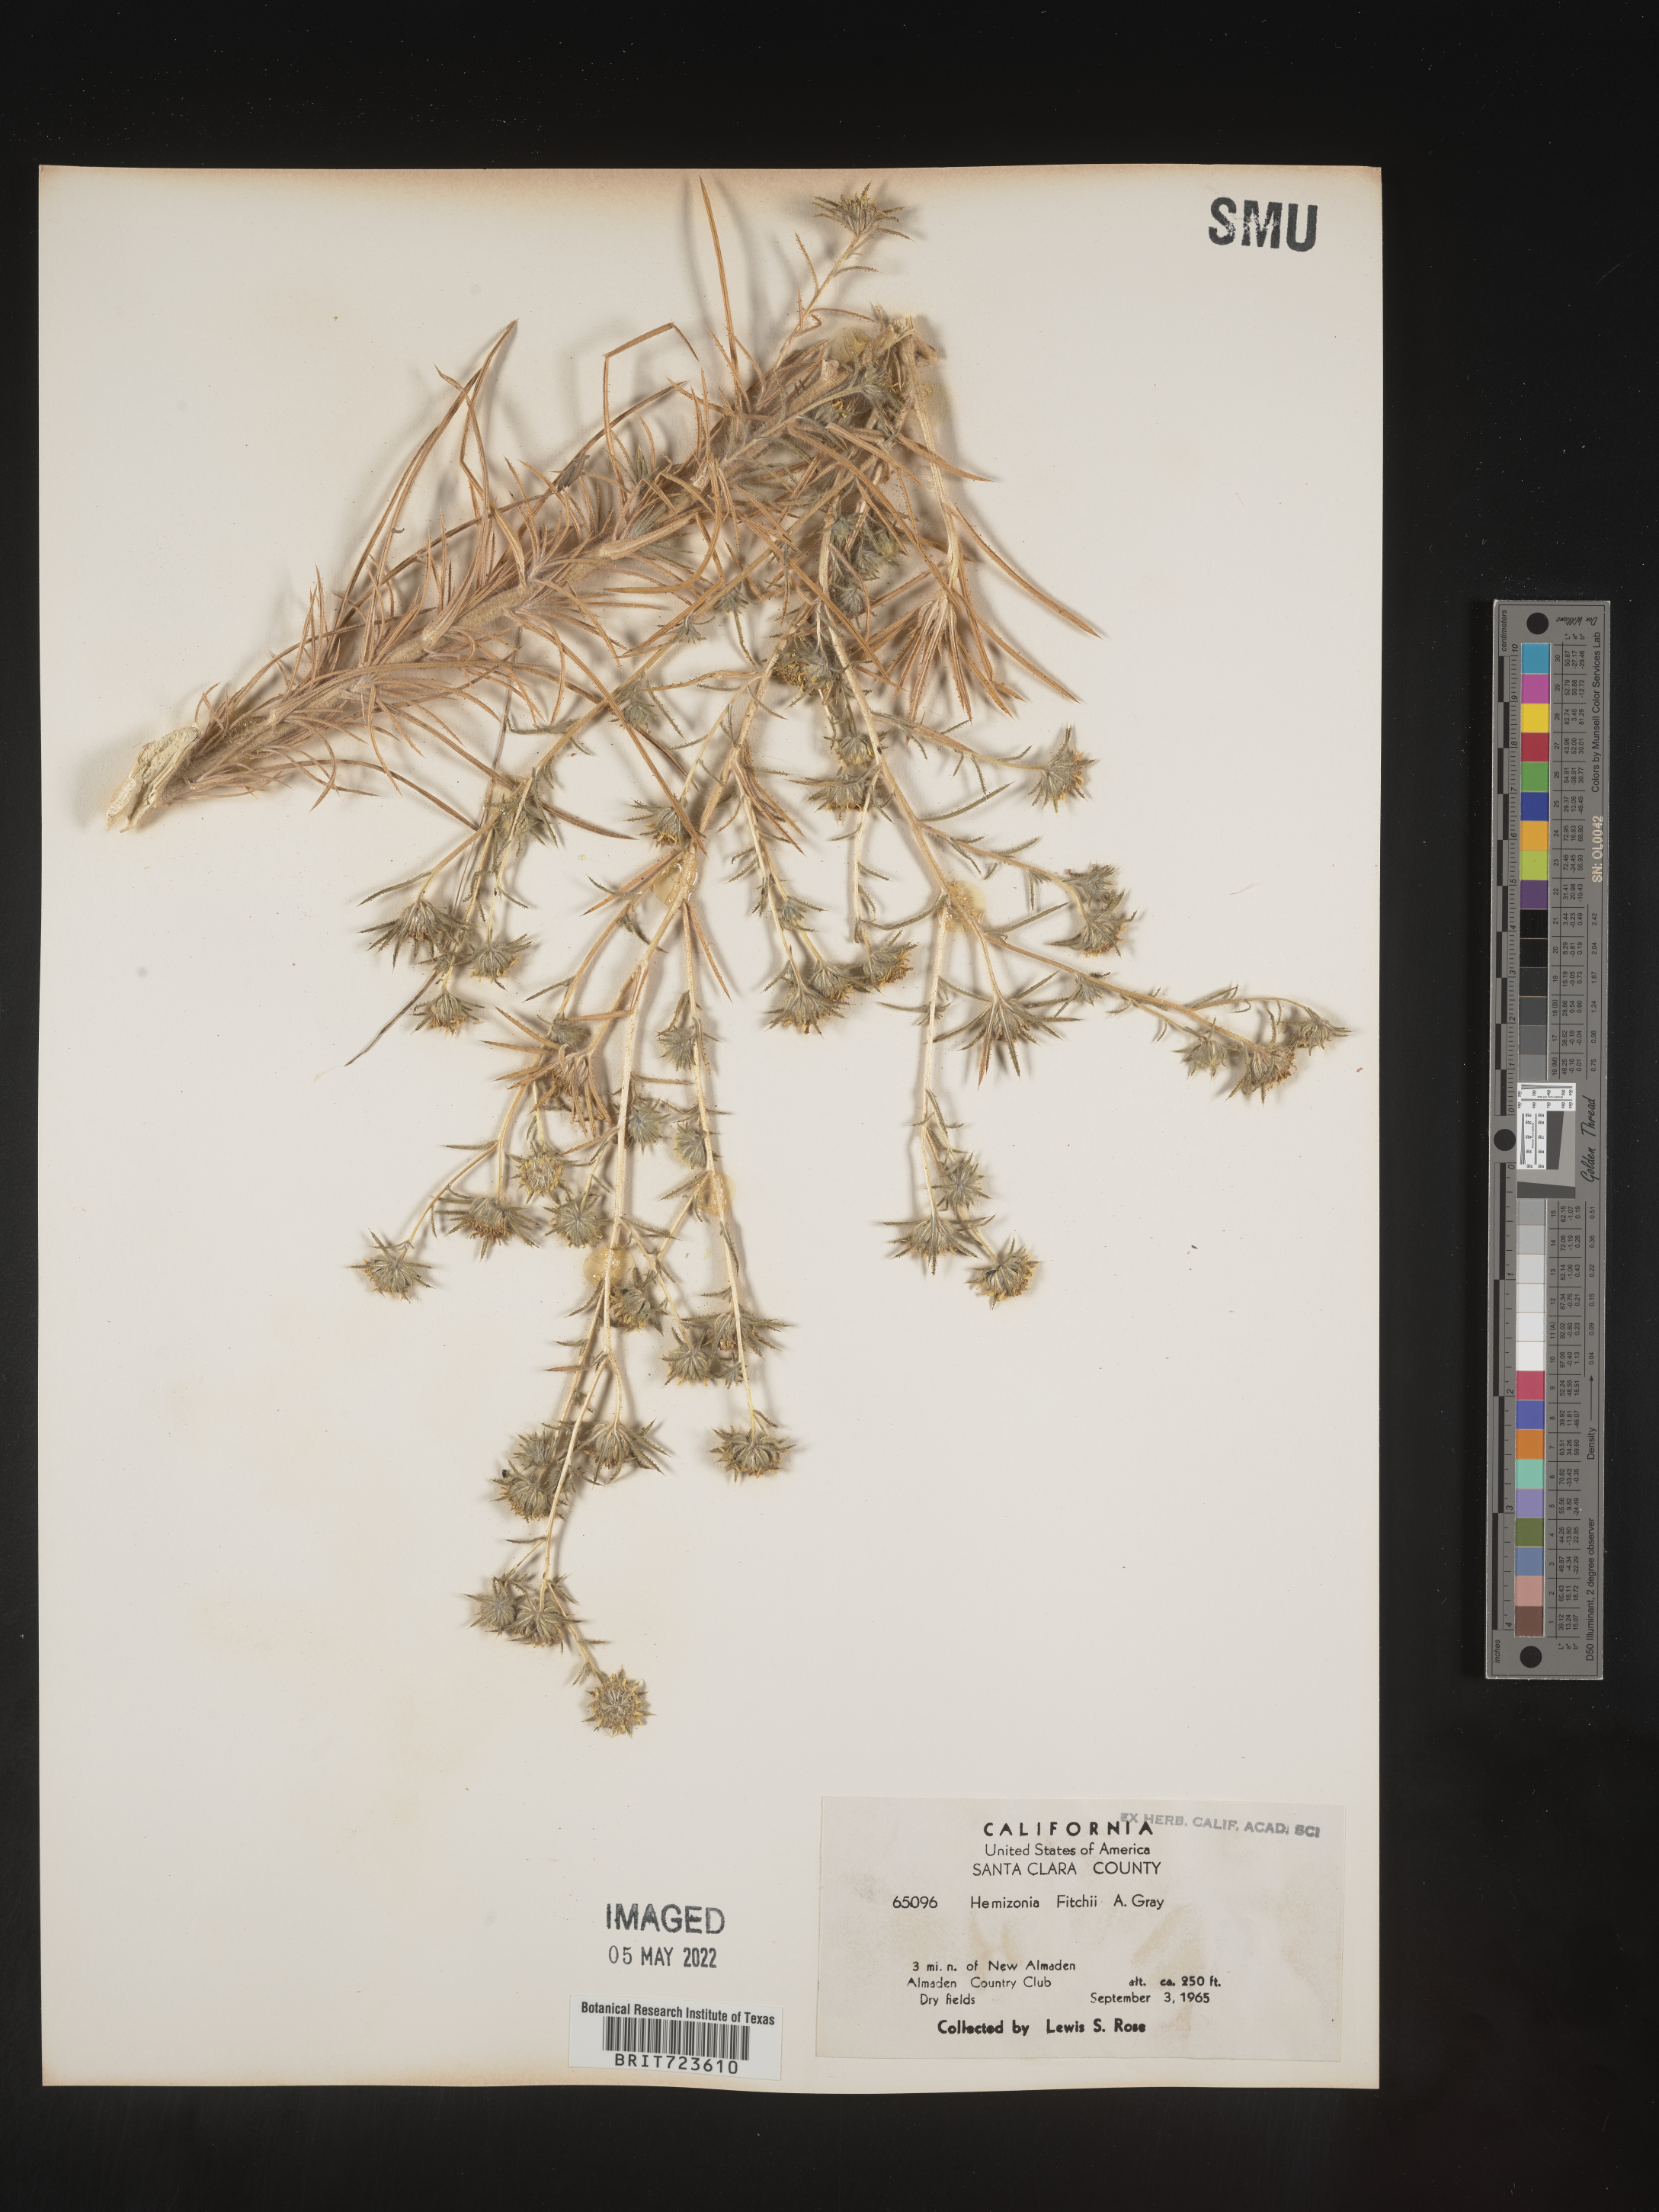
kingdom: Plantae
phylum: Tracheophyta
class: Magnoliopsida
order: Asterales
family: Asteraceae
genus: Hemizonia
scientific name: Hemizonia
